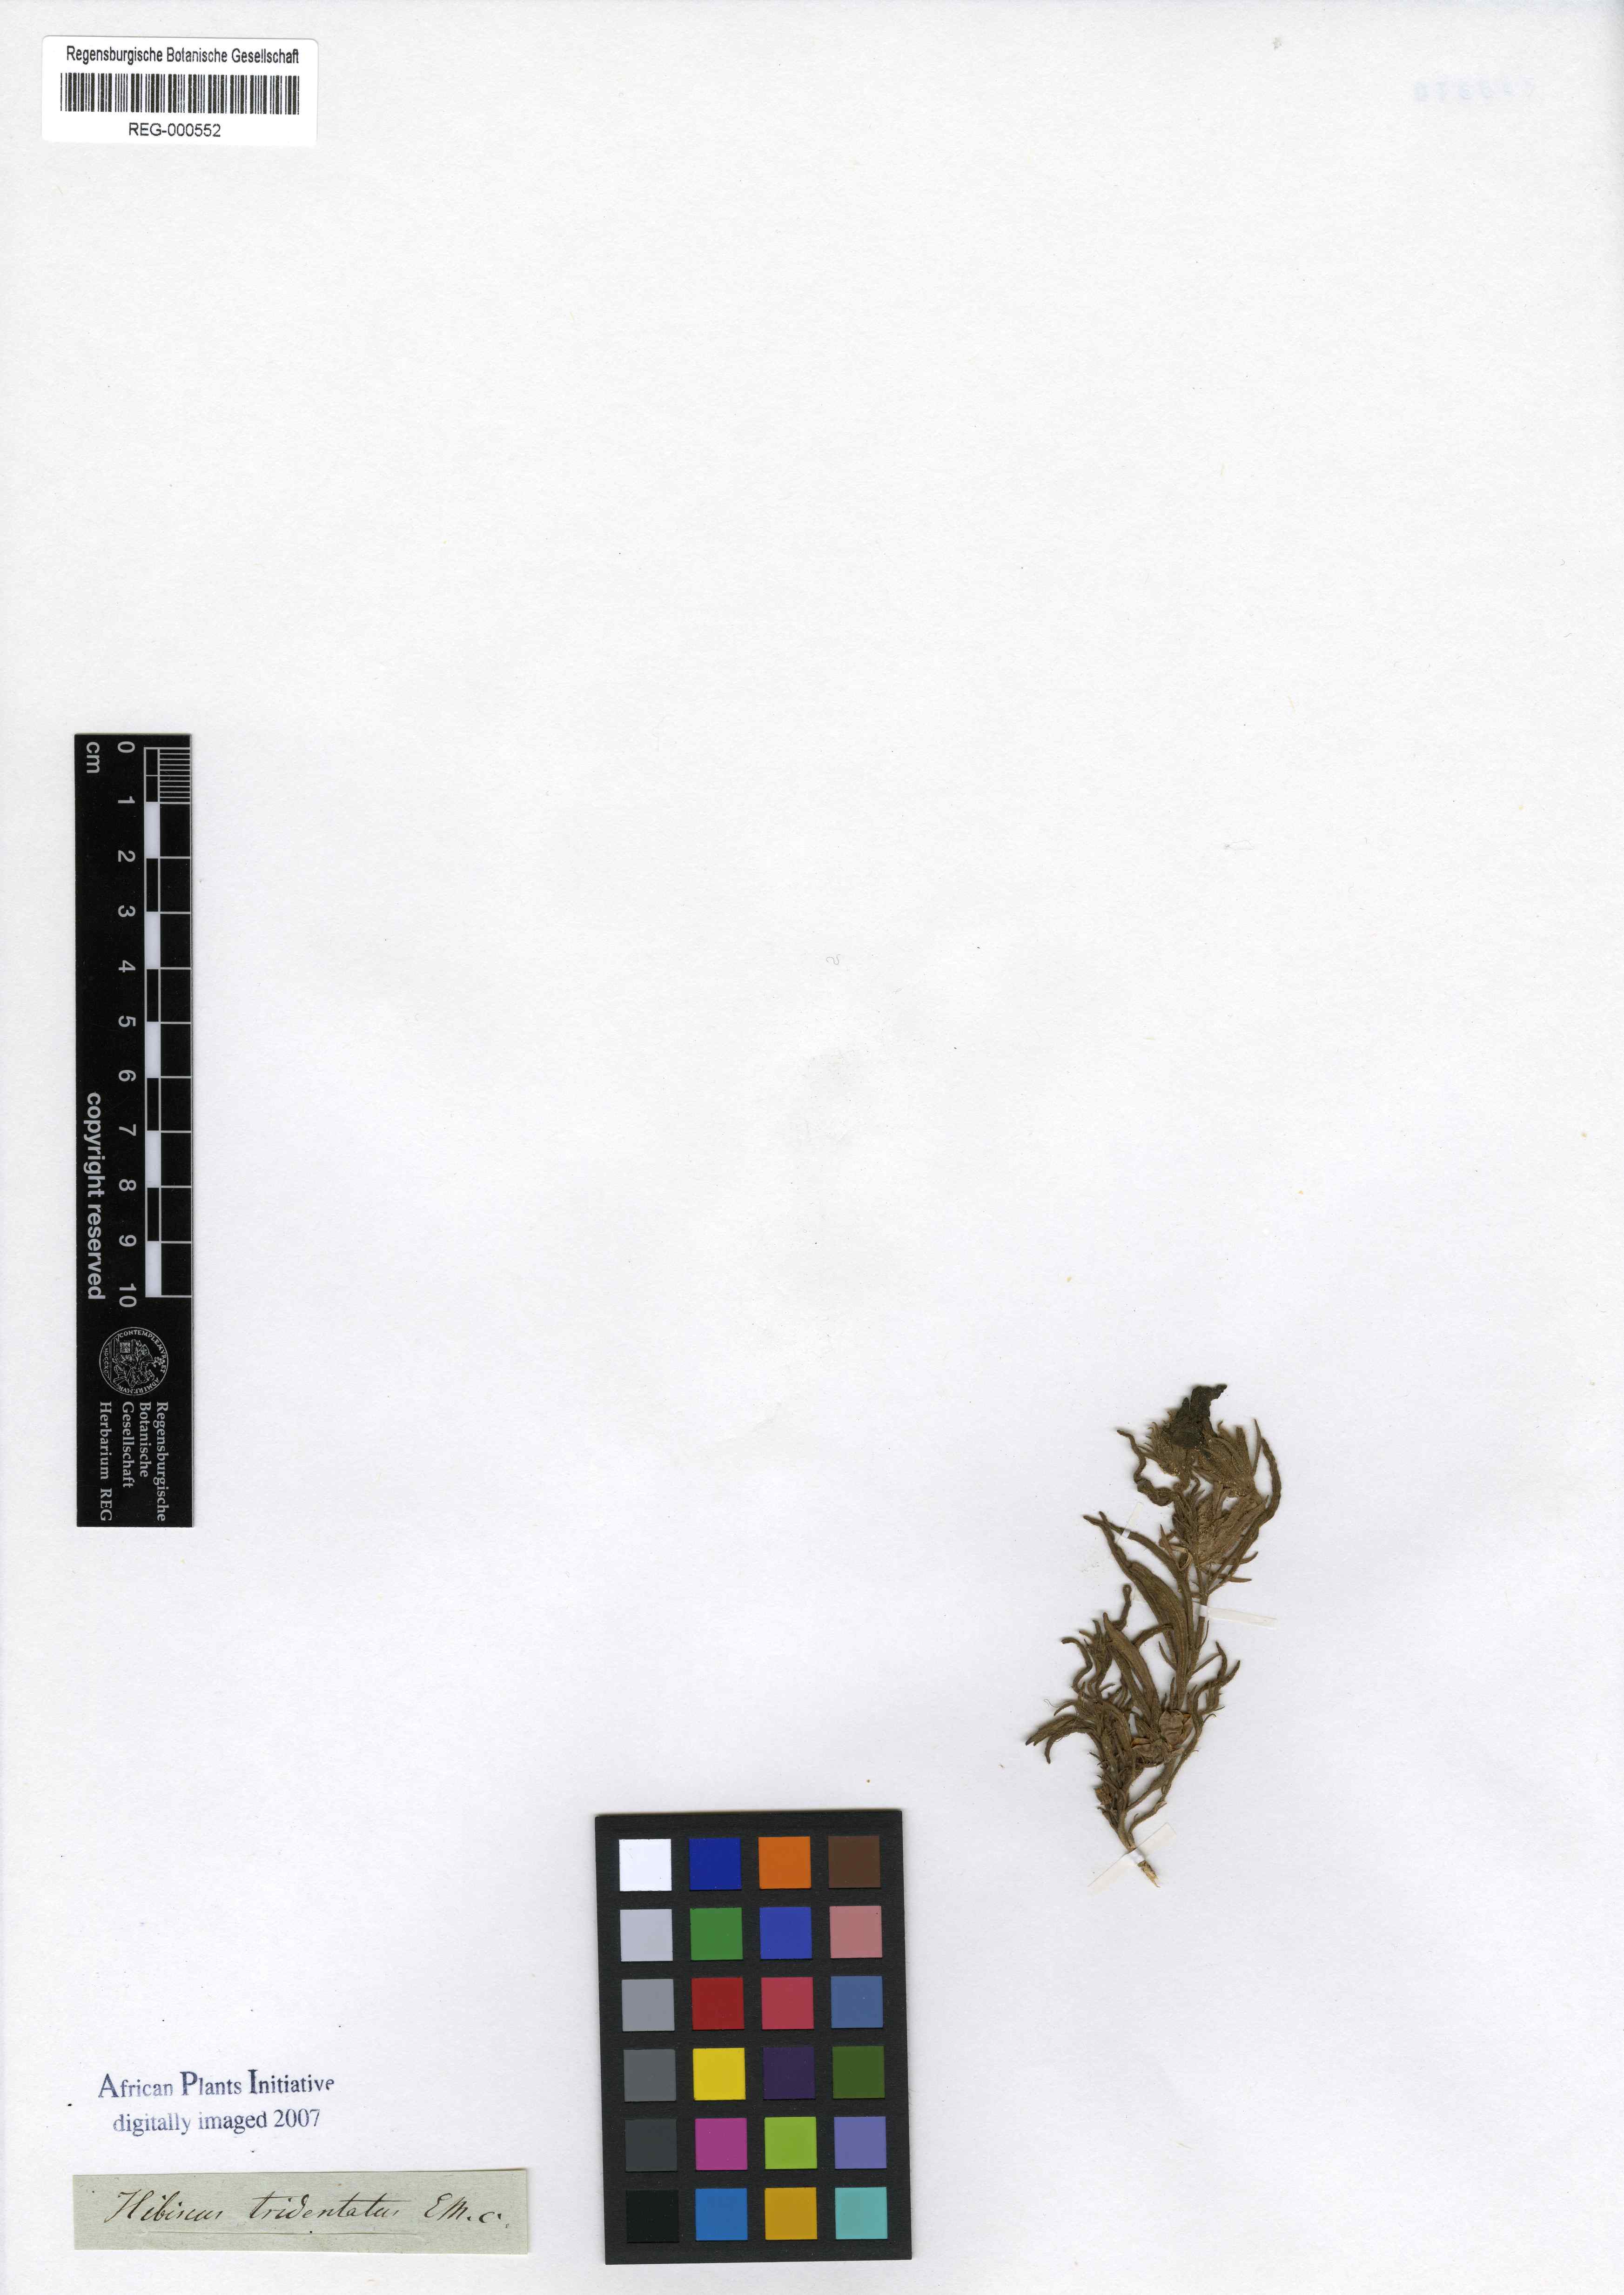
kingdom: Plantae
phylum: Tracheophyta
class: Magnoliopsida
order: Malvales
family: Malvaceae
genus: Hibiscus
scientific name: Hibiscus malacospermus
